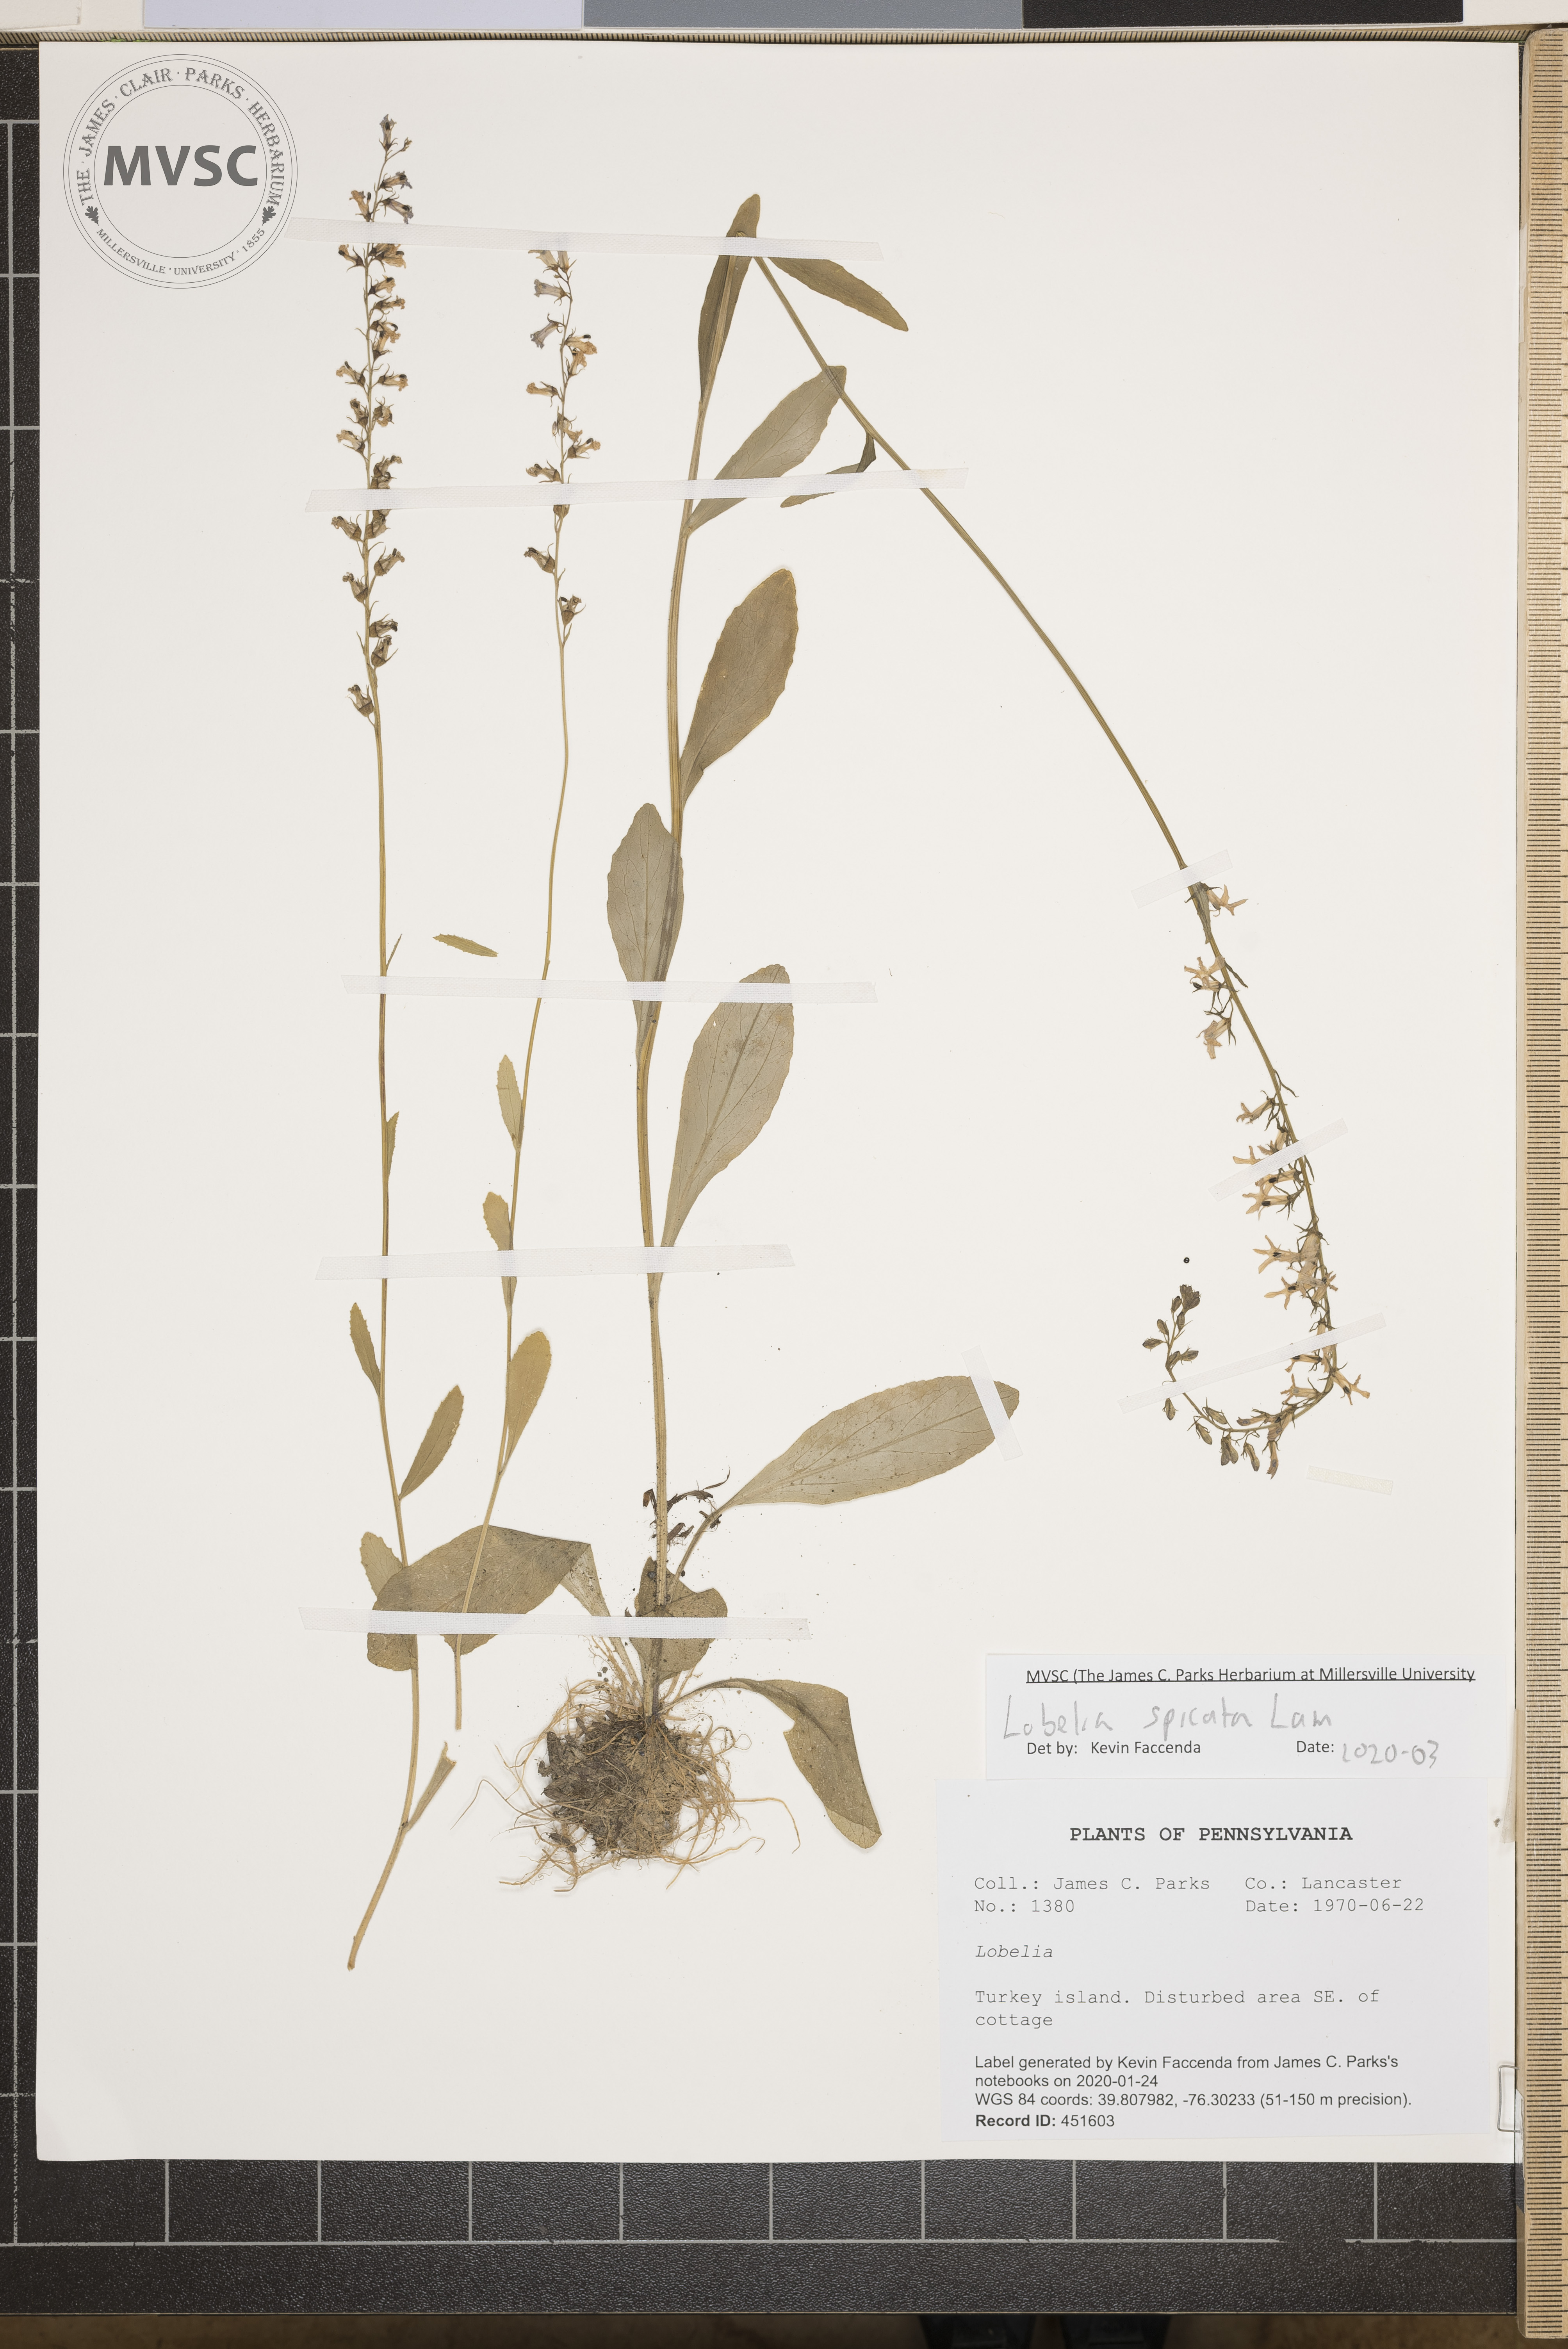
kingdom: Plantae
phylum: Tracheophyta
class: Magnoliopsida
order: Asterales
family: Campanulaceae
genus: Lobelia
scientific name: Lobelia spicata
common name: Pale-spike lobelia
